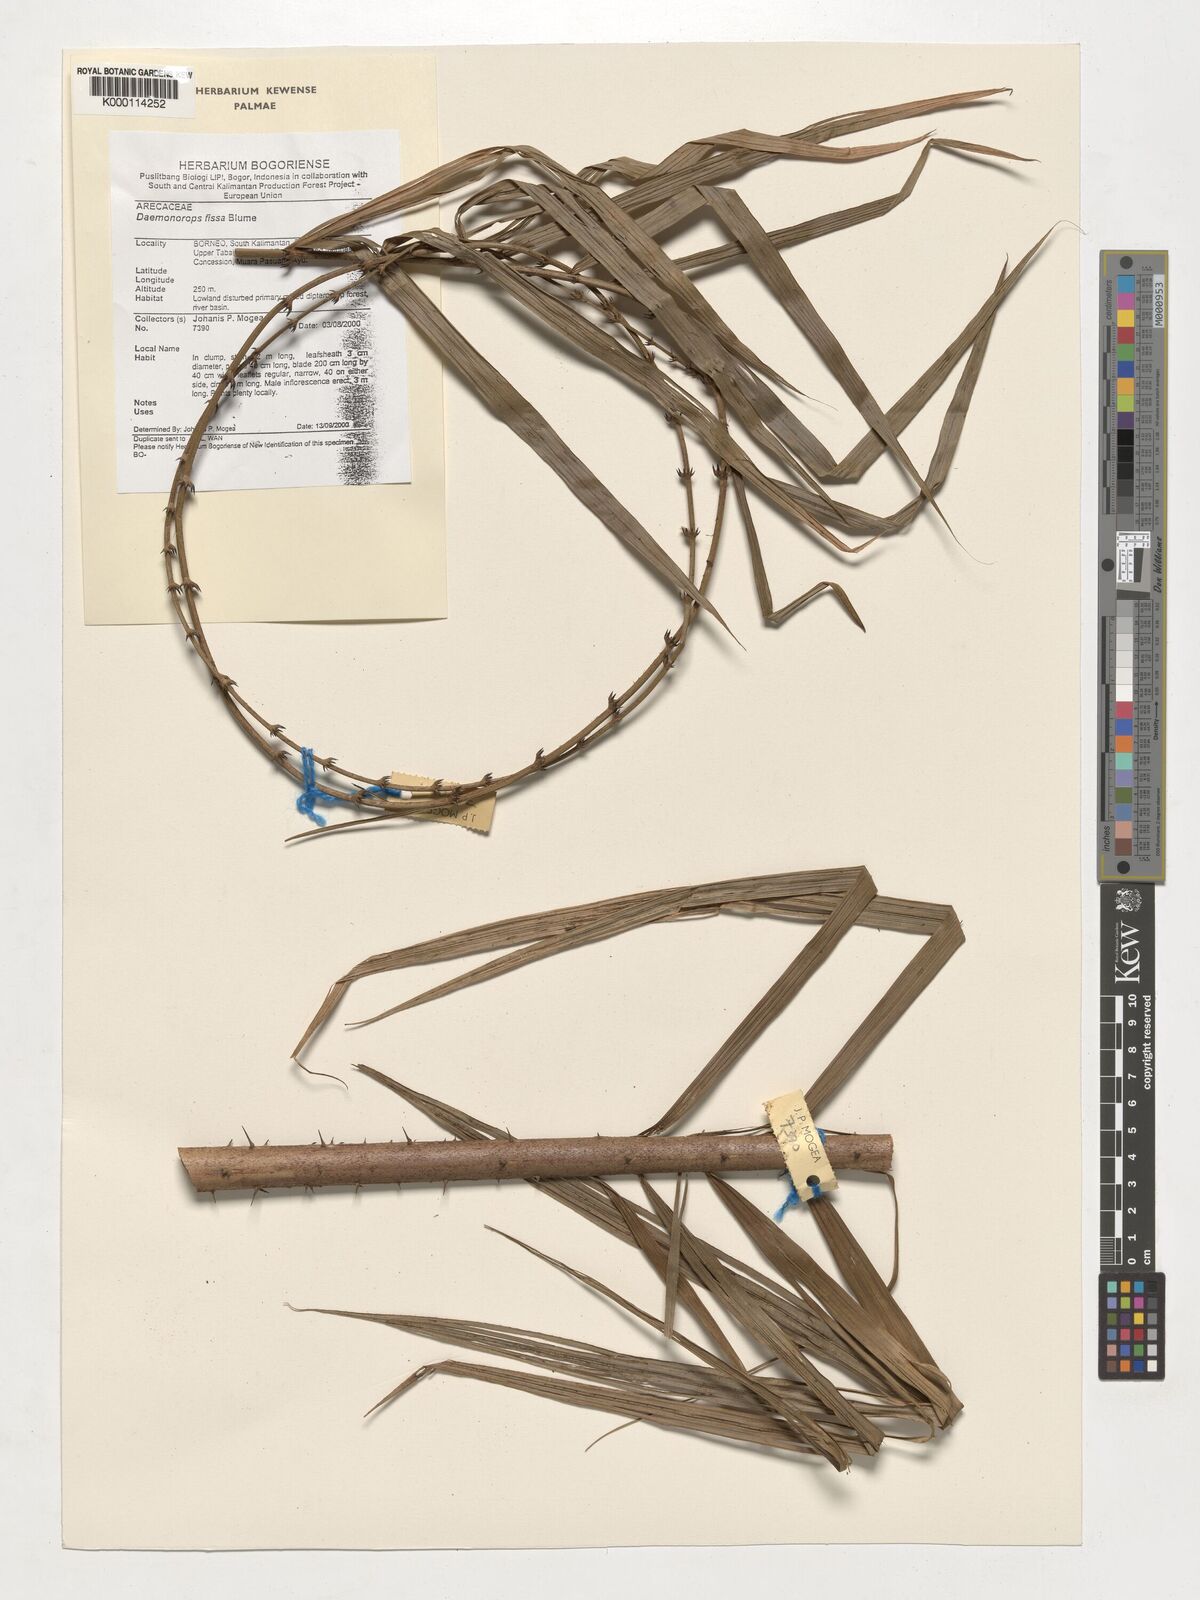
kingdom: Plantae
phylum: Tracheophyta
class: Liliopsida
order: Arecales
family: Arecaceae
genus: Calamus
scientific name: Calamus melanochaetes
